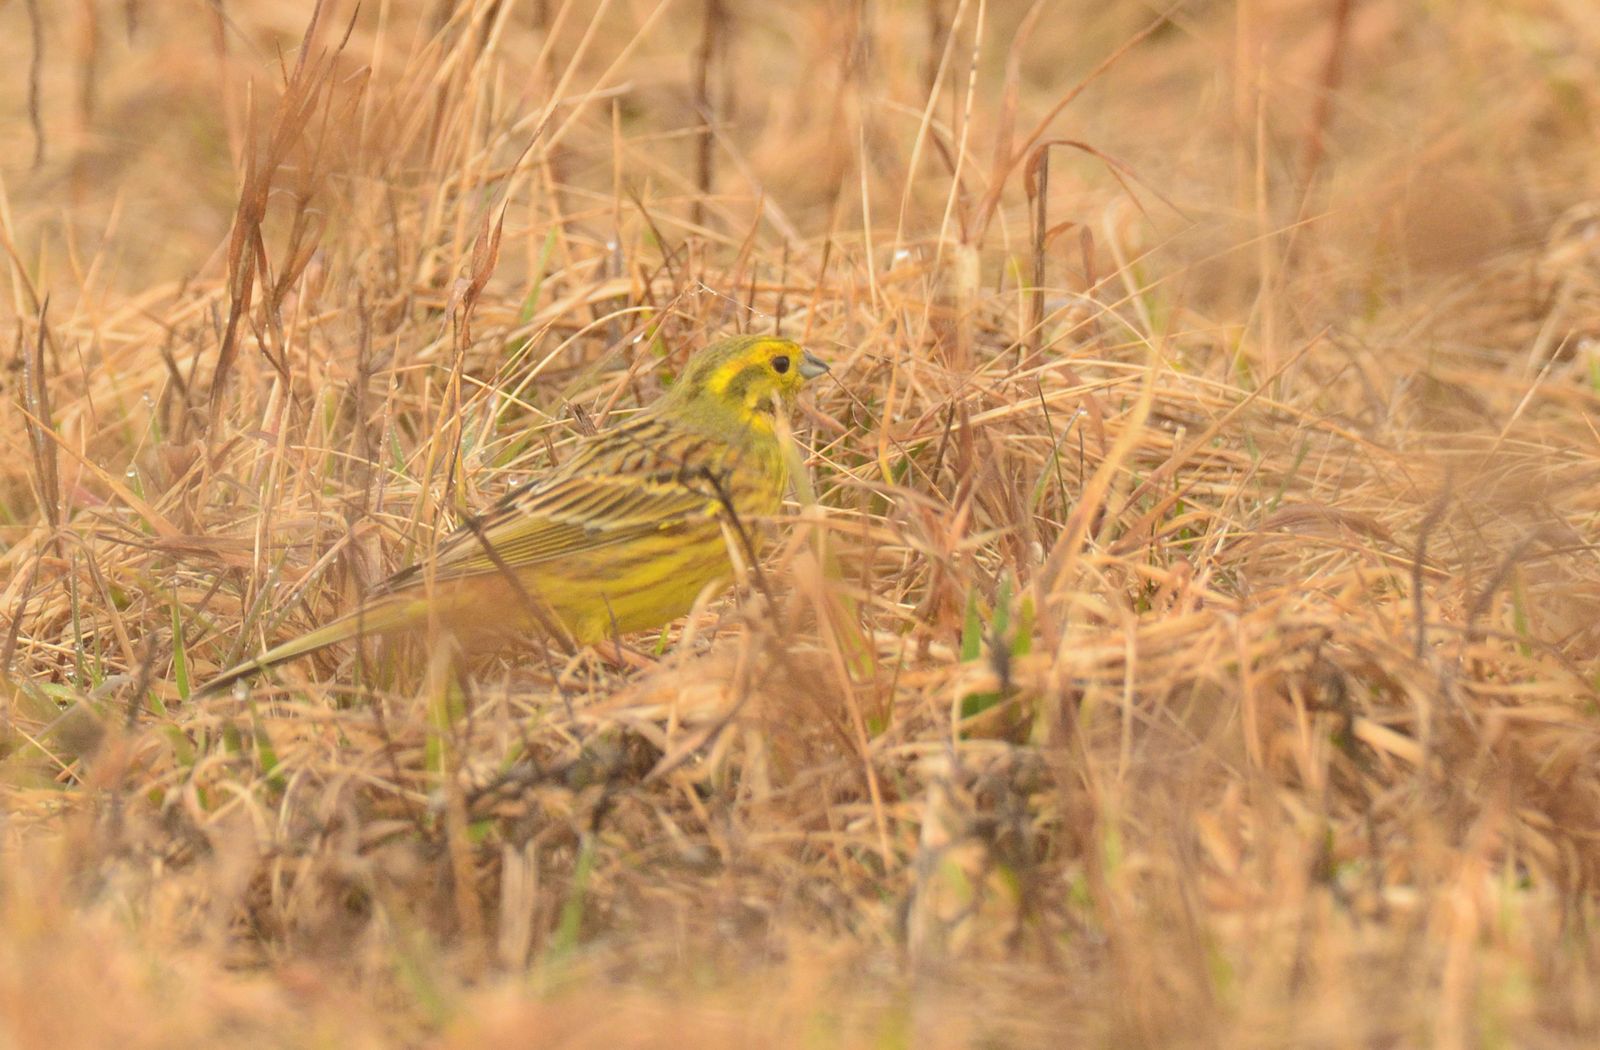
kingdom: Animalia
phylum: Chordata
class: Aves
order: Passeriformes
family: Emberizidae
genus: Emberiza
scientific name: Emberiza citrinella
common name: Yellowhammer
